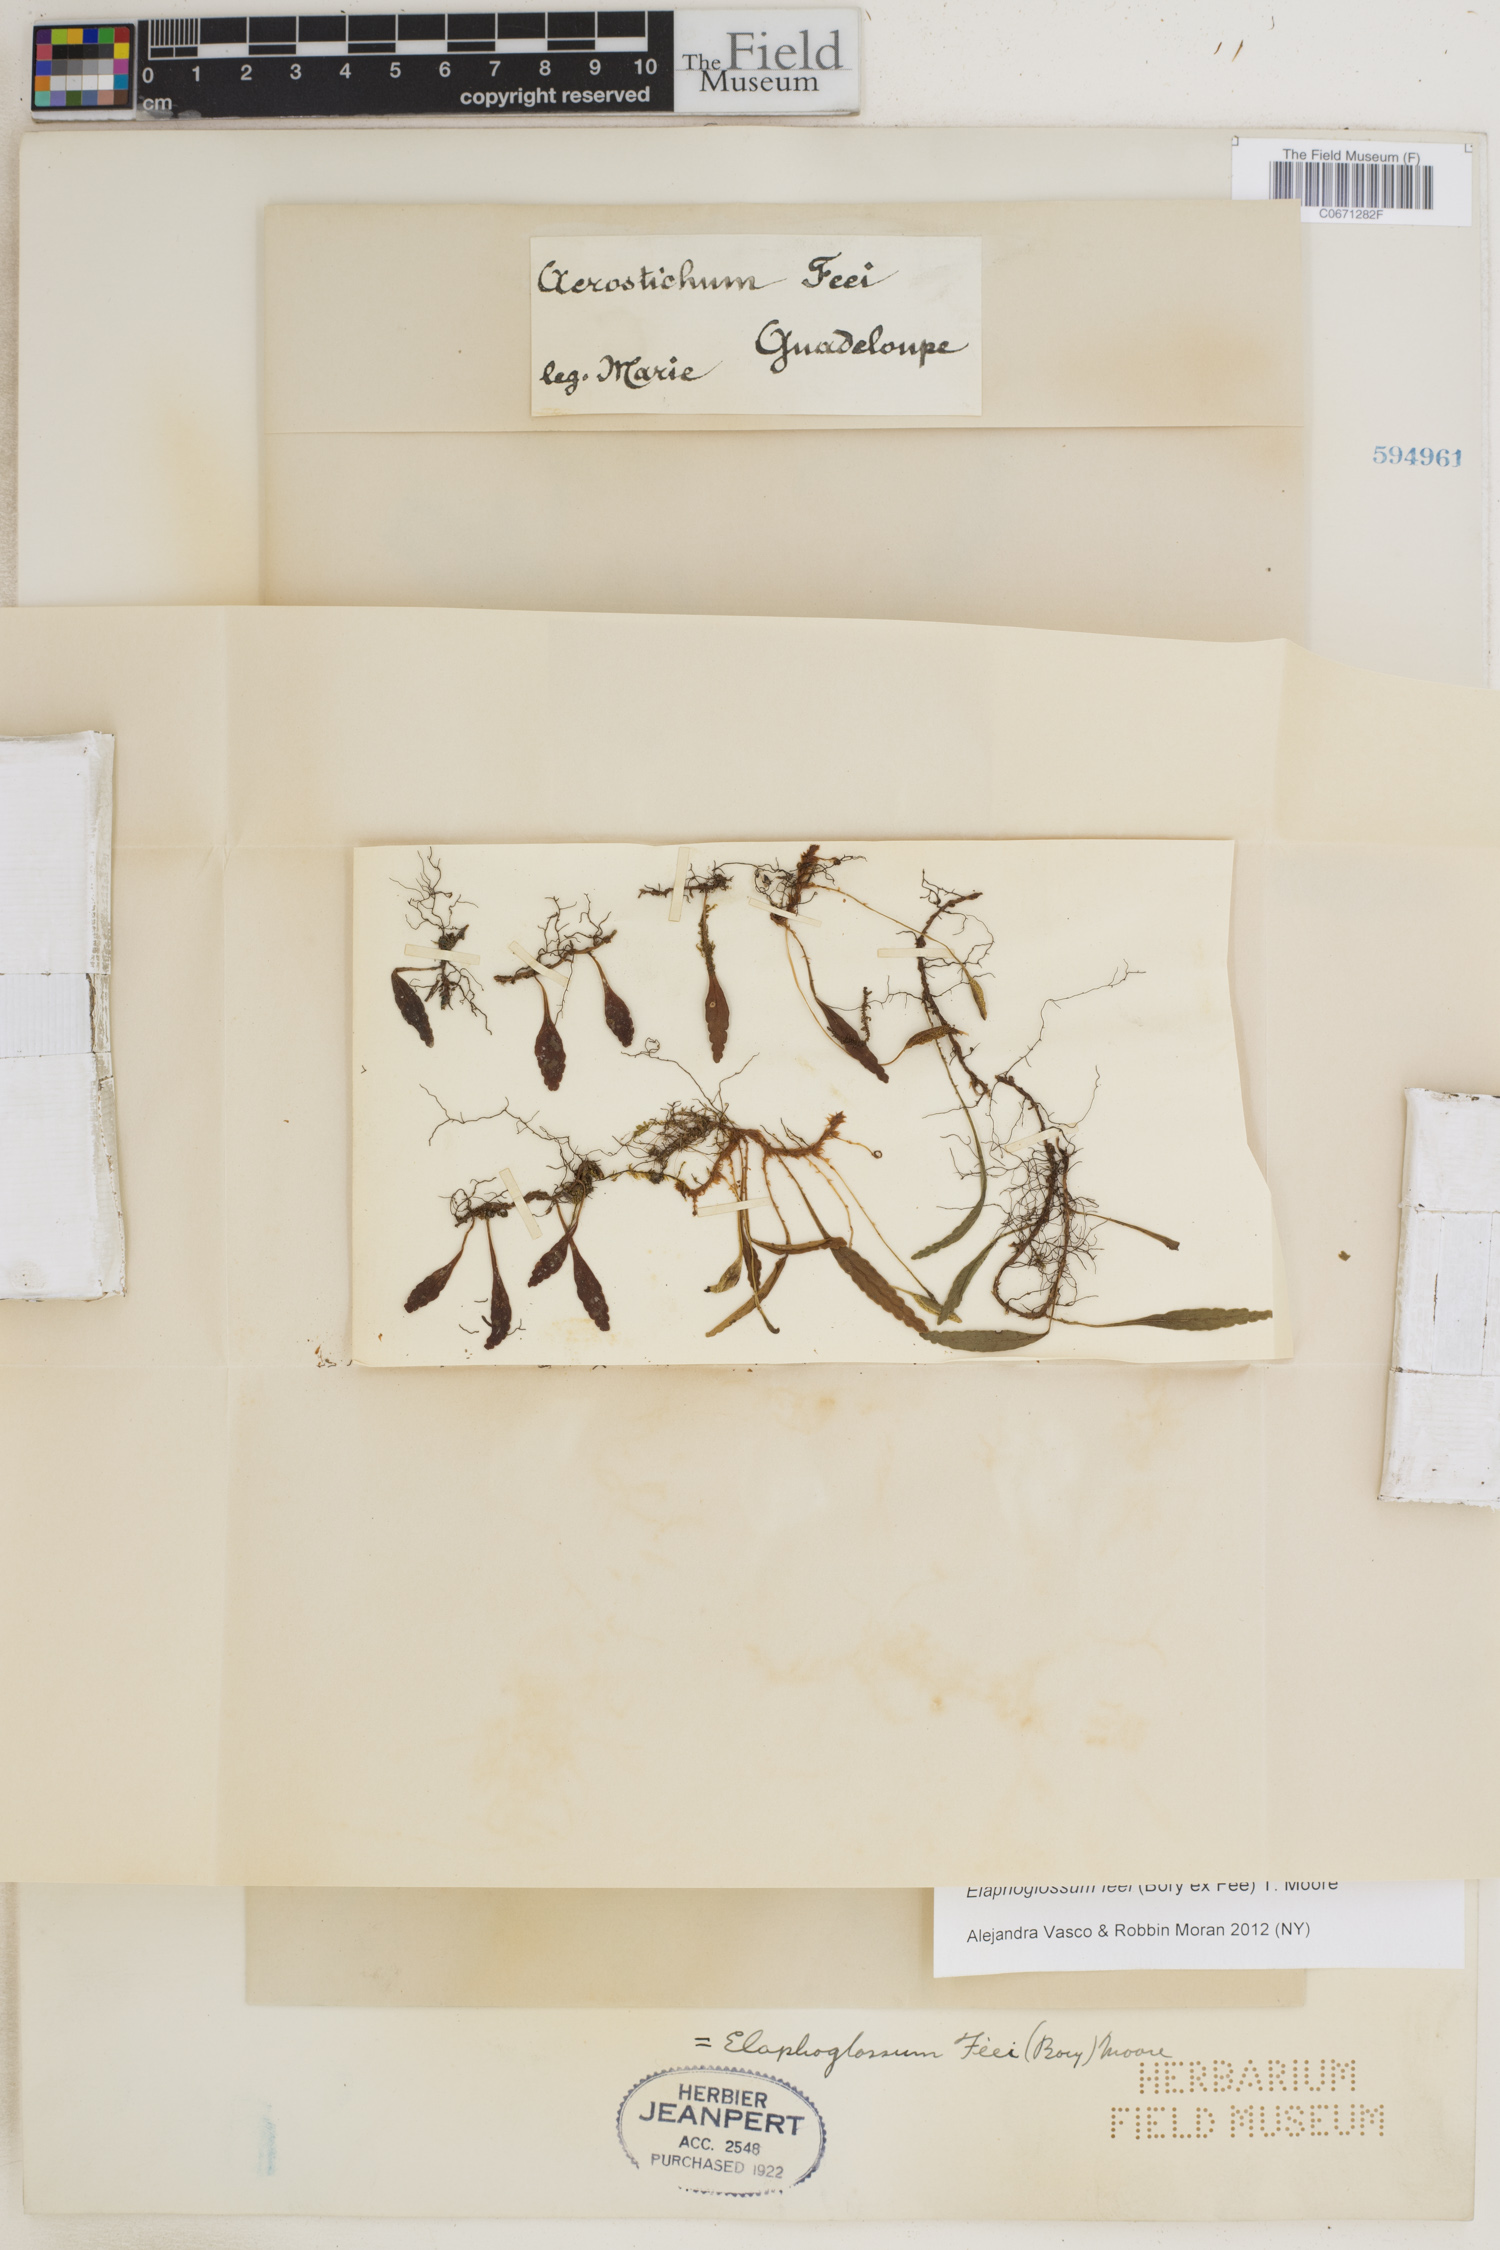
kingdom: Plantae
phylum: Tracheophyta
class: Polypodiopsida
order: Polypodiales
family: Dryopteridaceae
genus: Elaphoglossum
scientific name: Elaphoglossum feei
